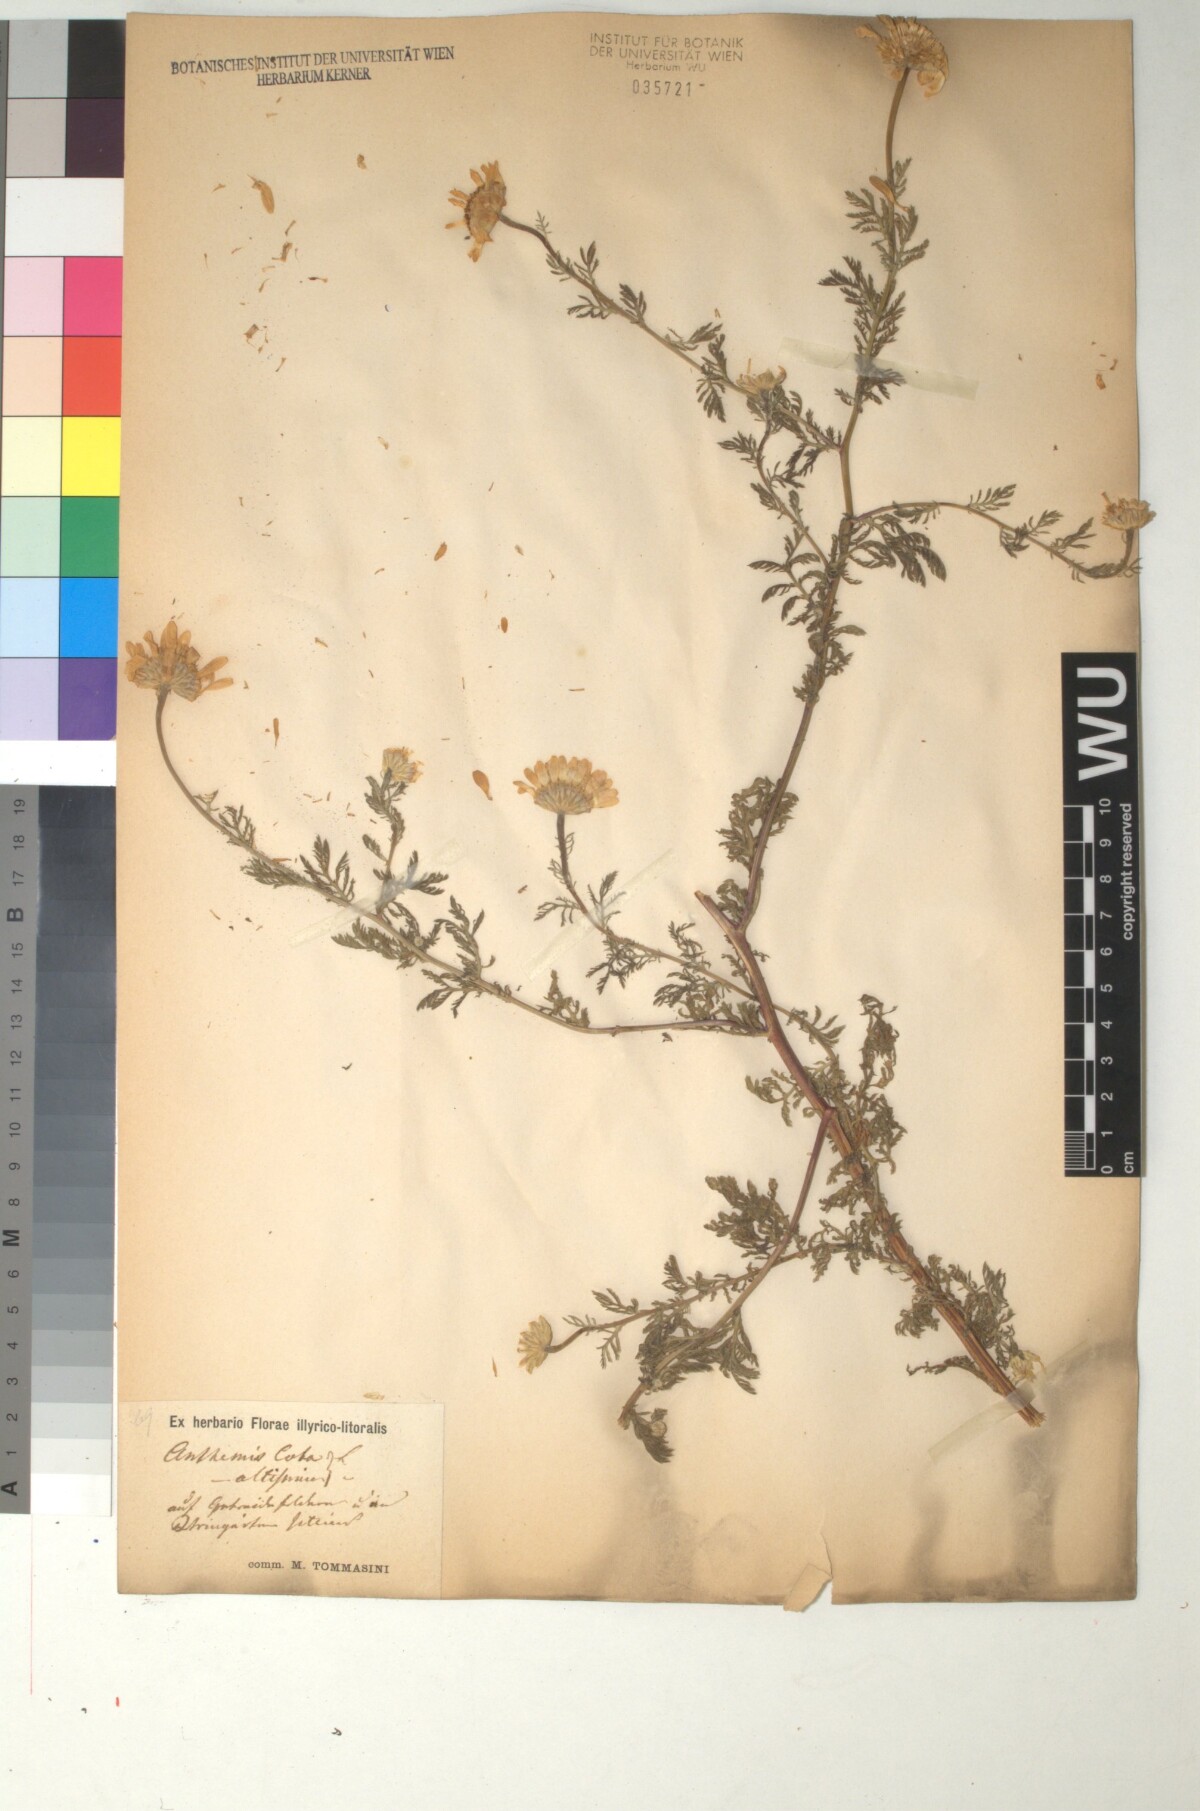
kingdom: Plantae
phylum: Tracheophyta
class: Magnoliopsida
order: Asterales
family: Asteraceae
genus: Cota
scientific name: Cota altissima
